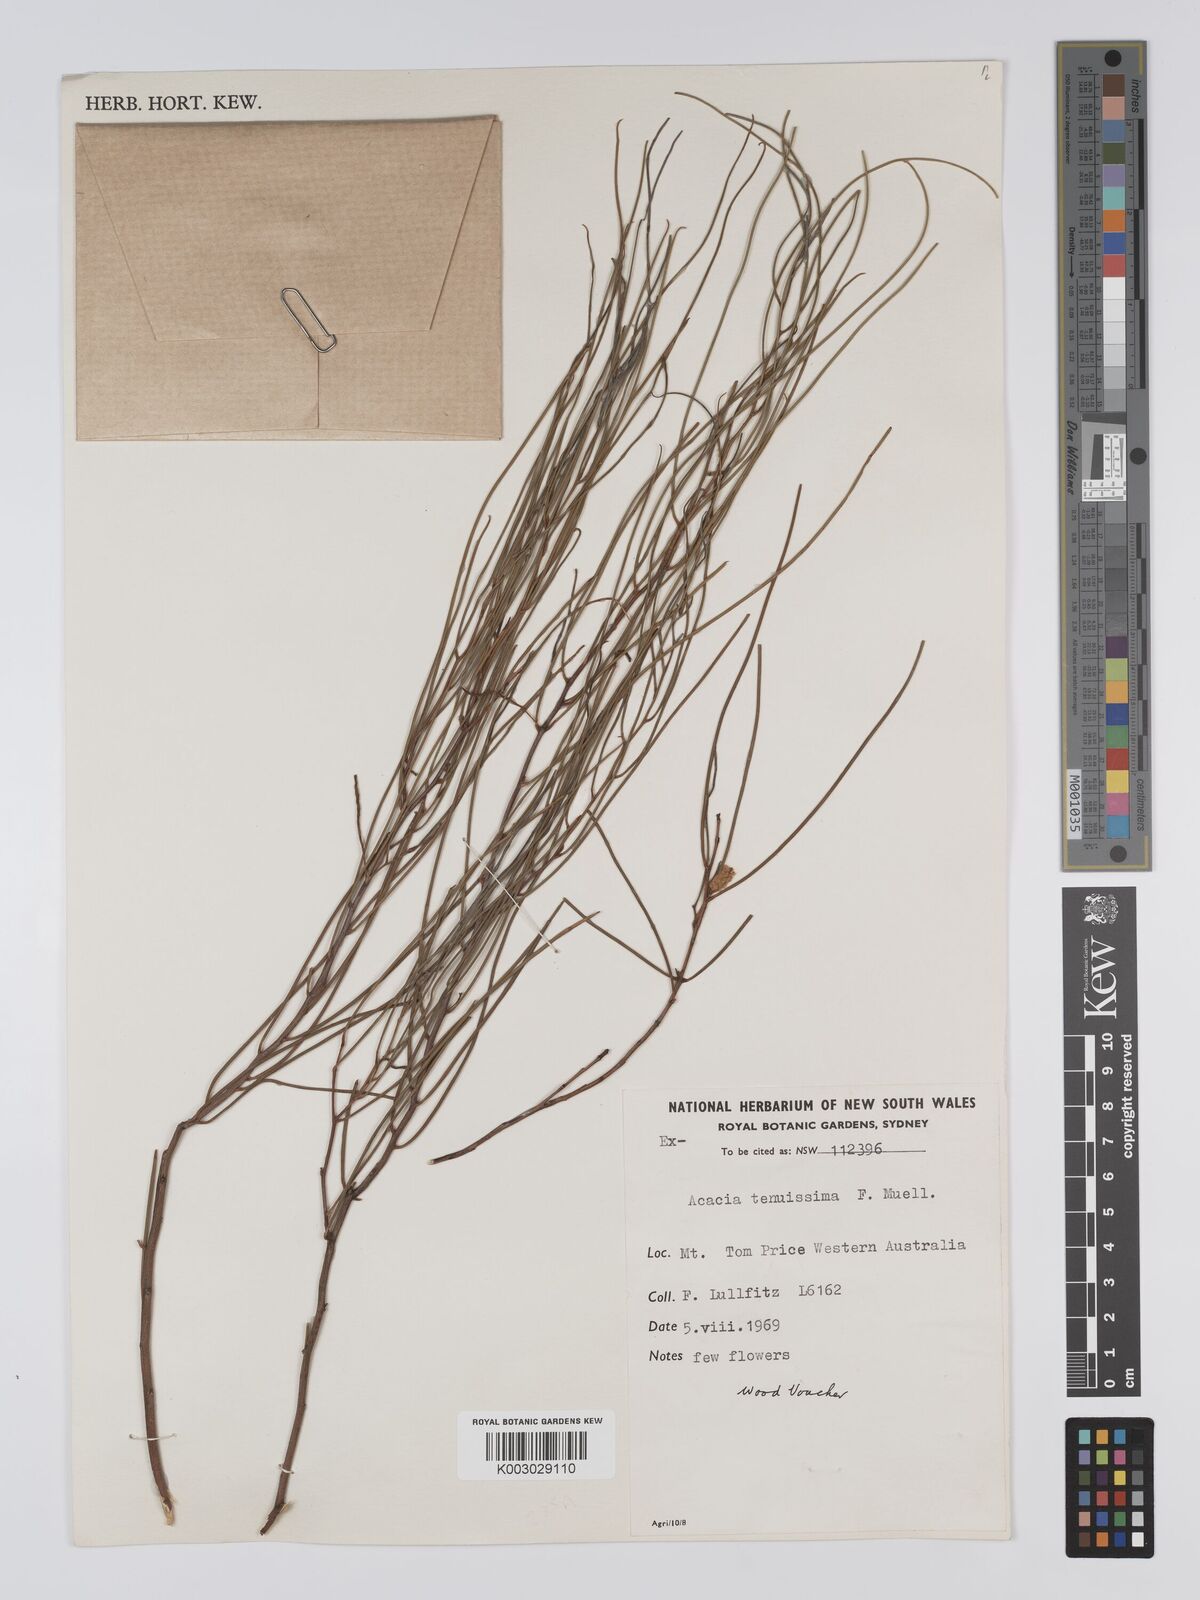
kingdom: Plantae
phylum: Tracheophyta
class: Magnoliopsida
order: Fabales
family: Fabaceae
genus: Acacia
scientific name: Acacia tenuissima
